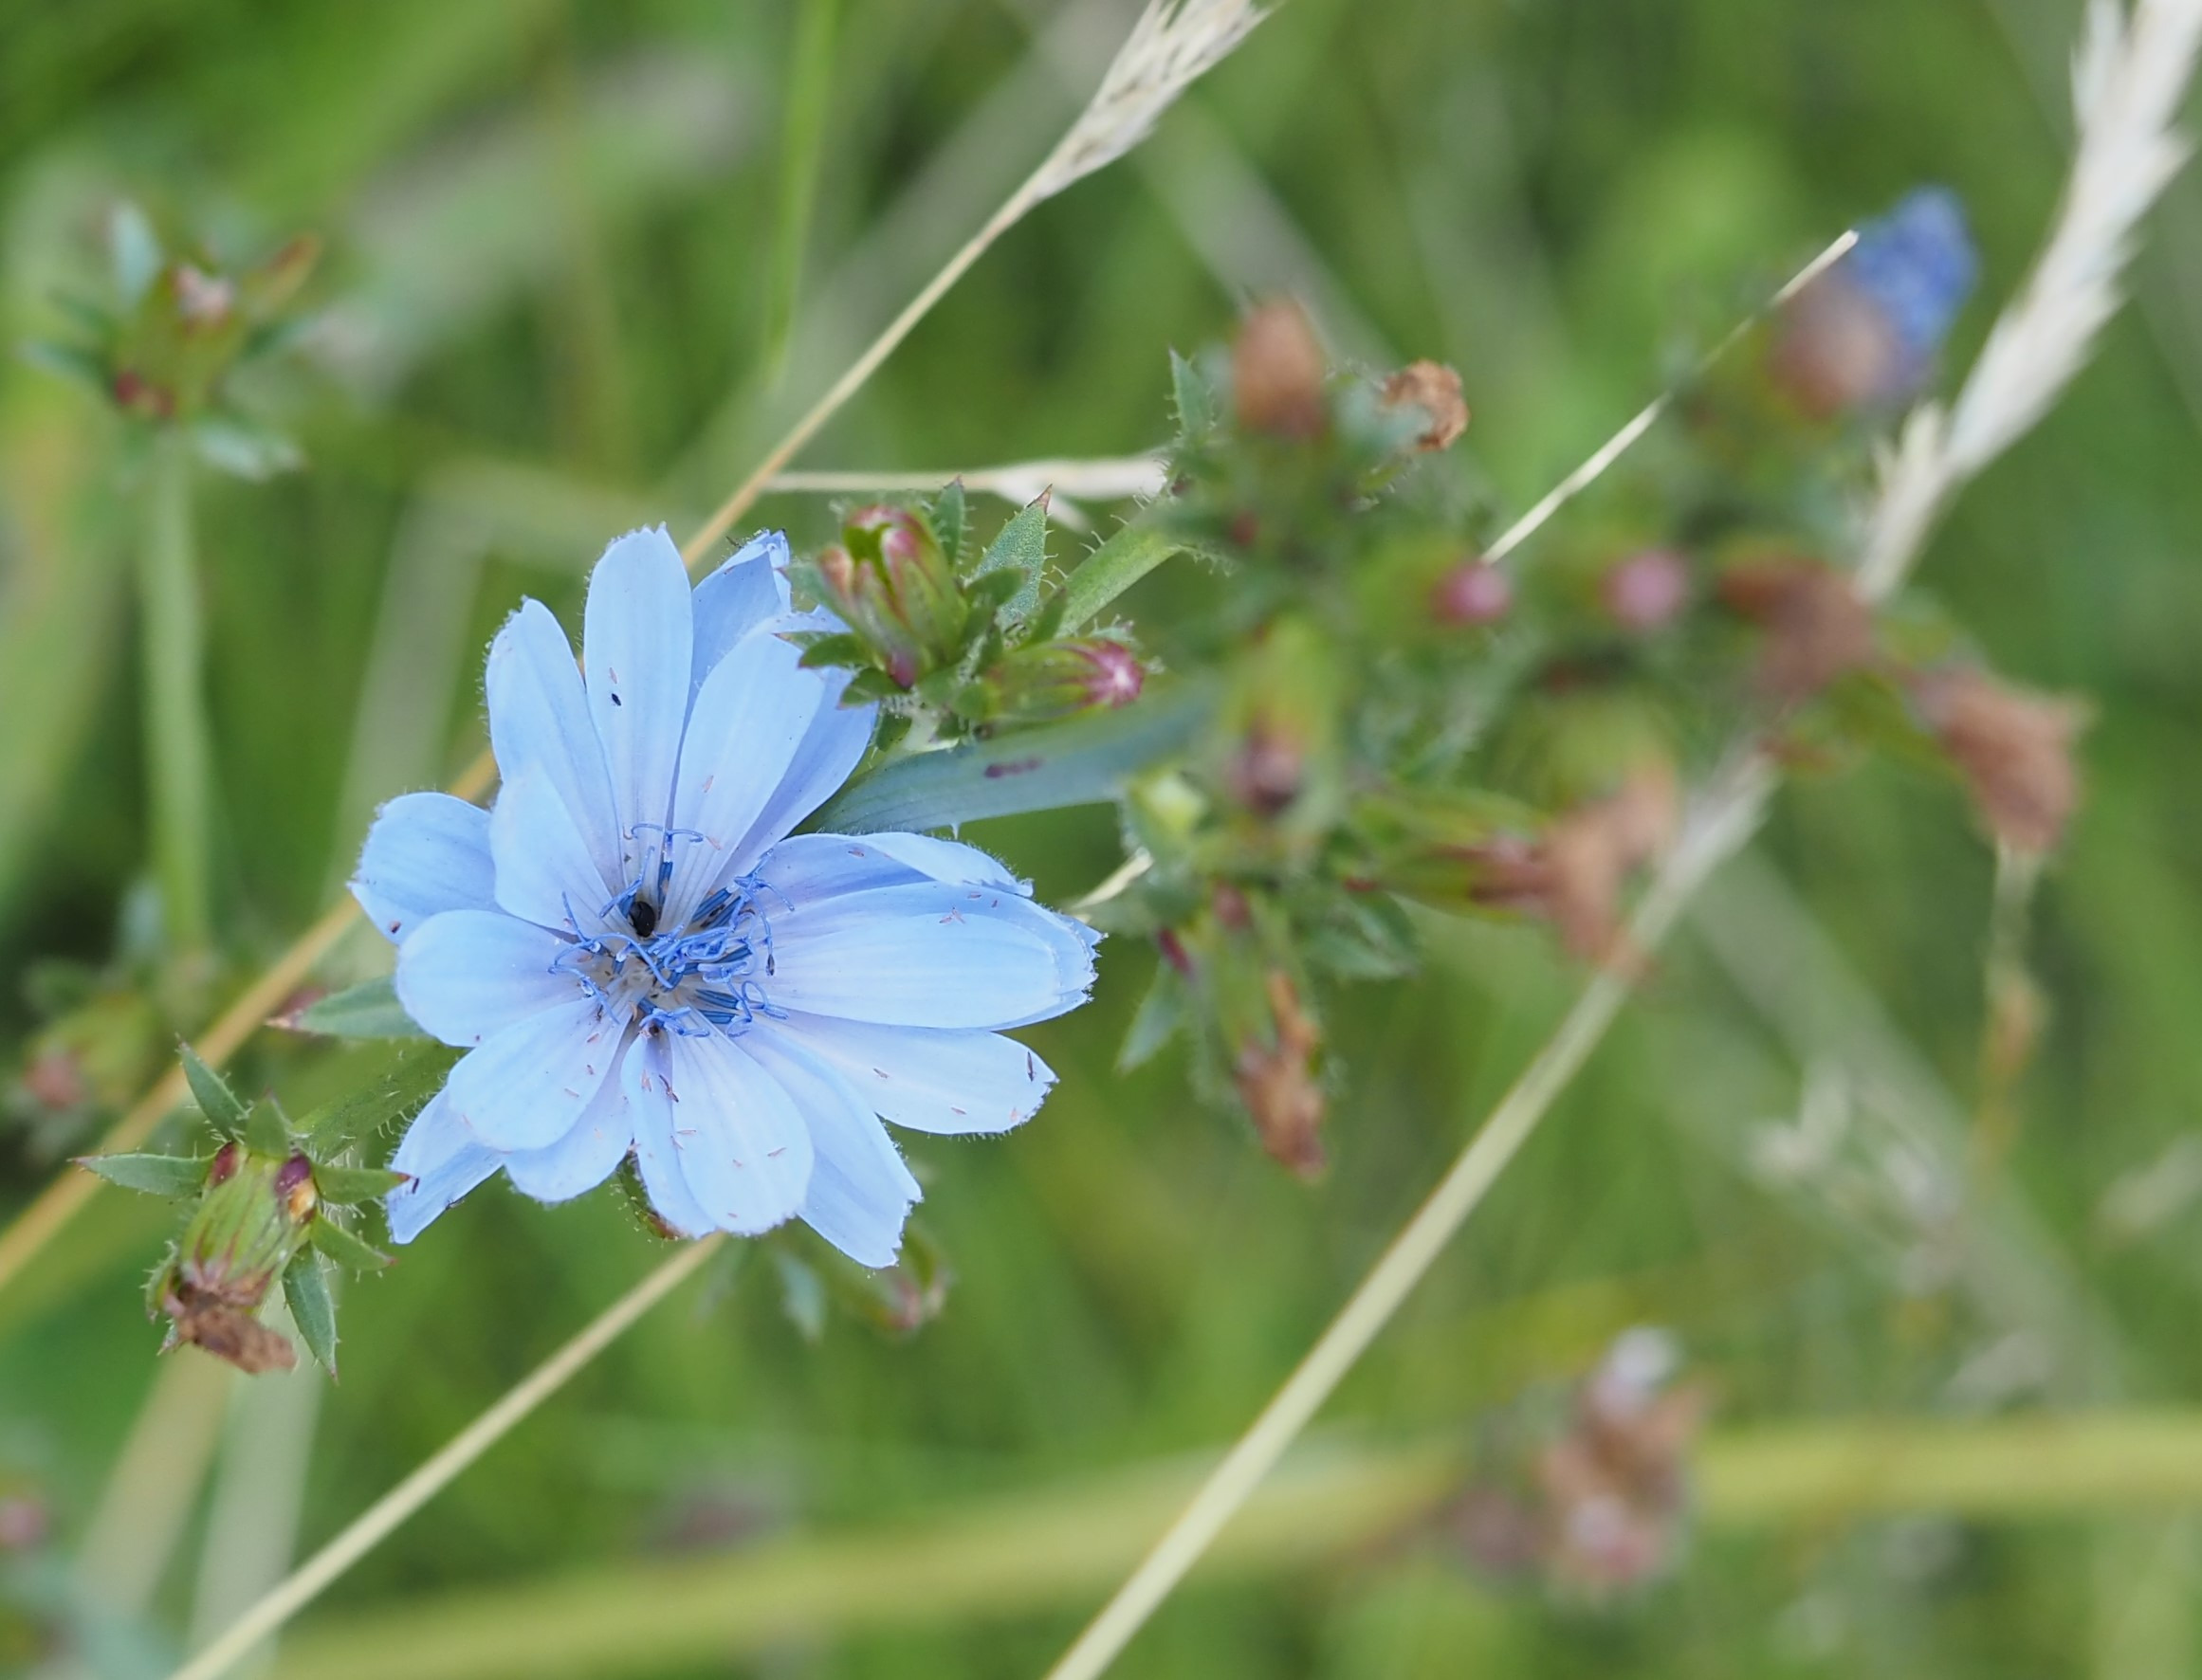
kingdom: Plantae
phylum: Tracheophyta
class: Magnoliopsida
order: Asterales
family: Asteraceae
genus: Cichorium
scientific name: Cichorium intybus
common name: Cikorie
